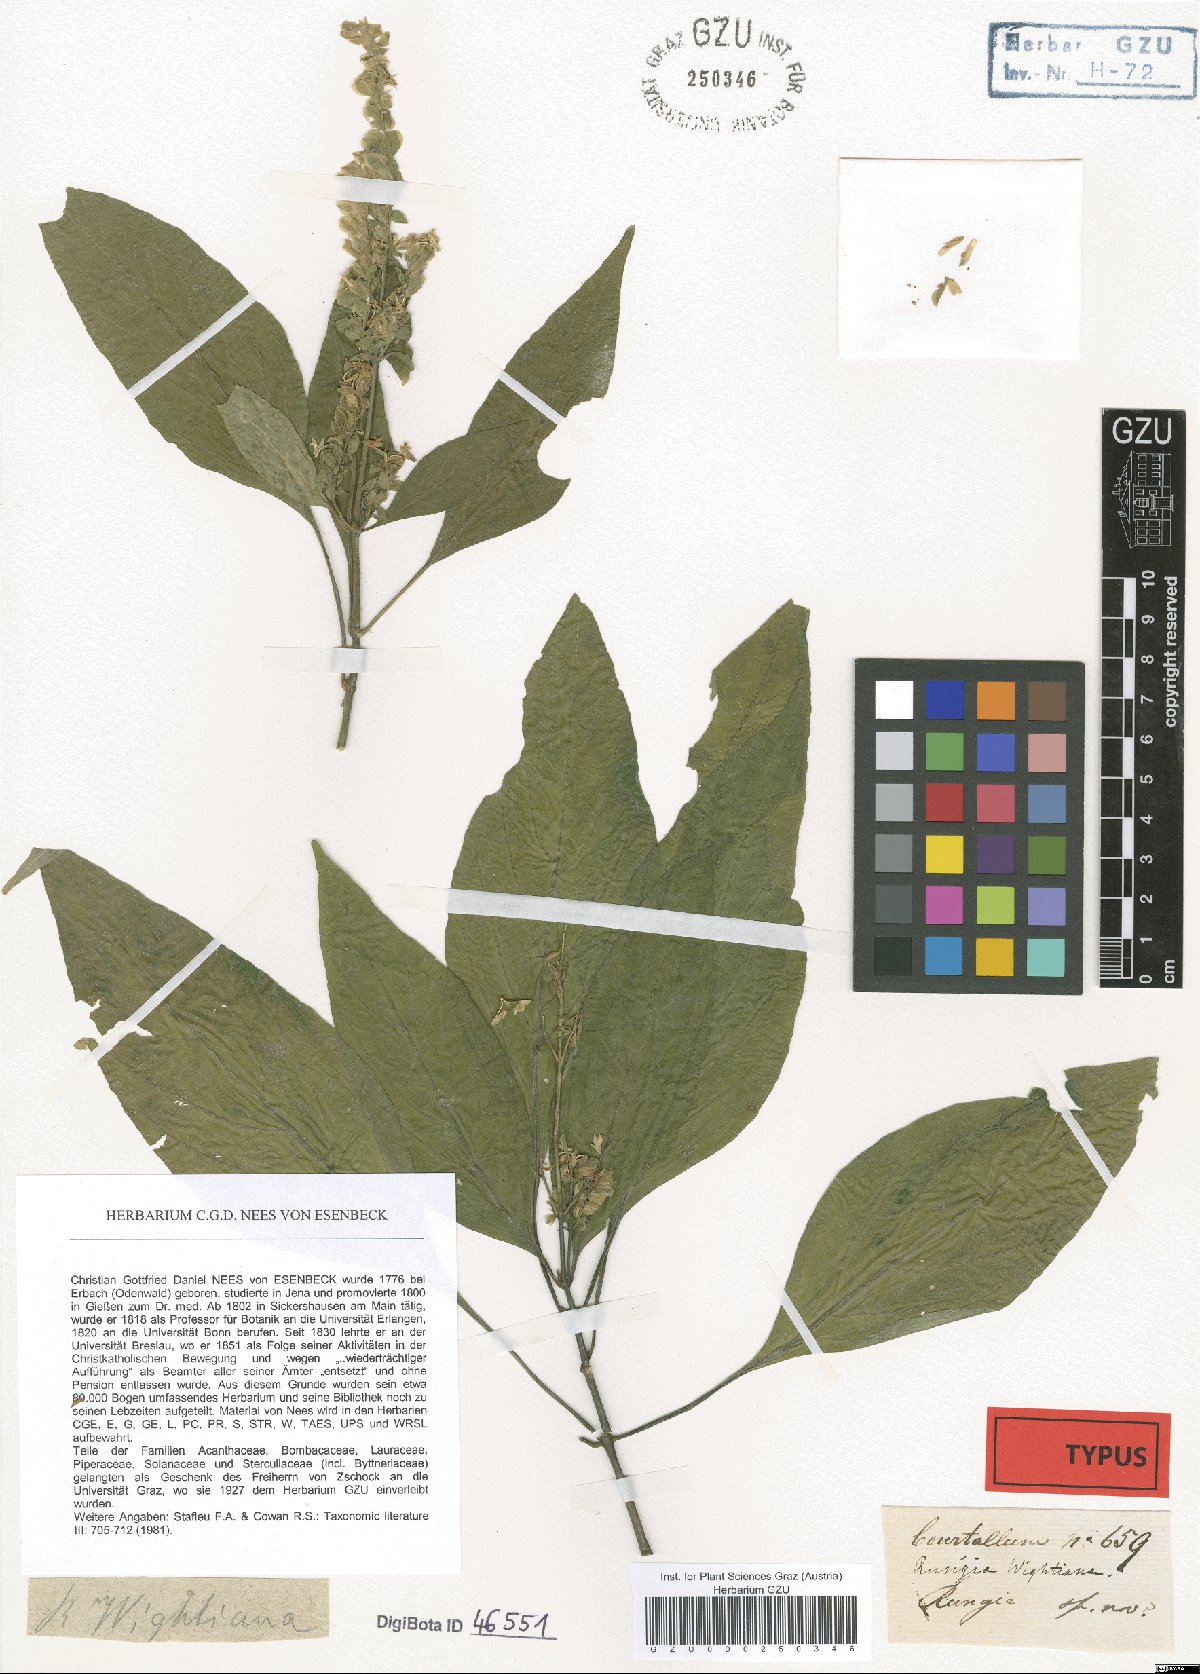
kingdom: Plantae
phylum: Tracheophyta
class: Magnoliopsida
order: Lamiales
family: Acanthaceae
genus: Rungia
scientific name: Rungia wightiana
